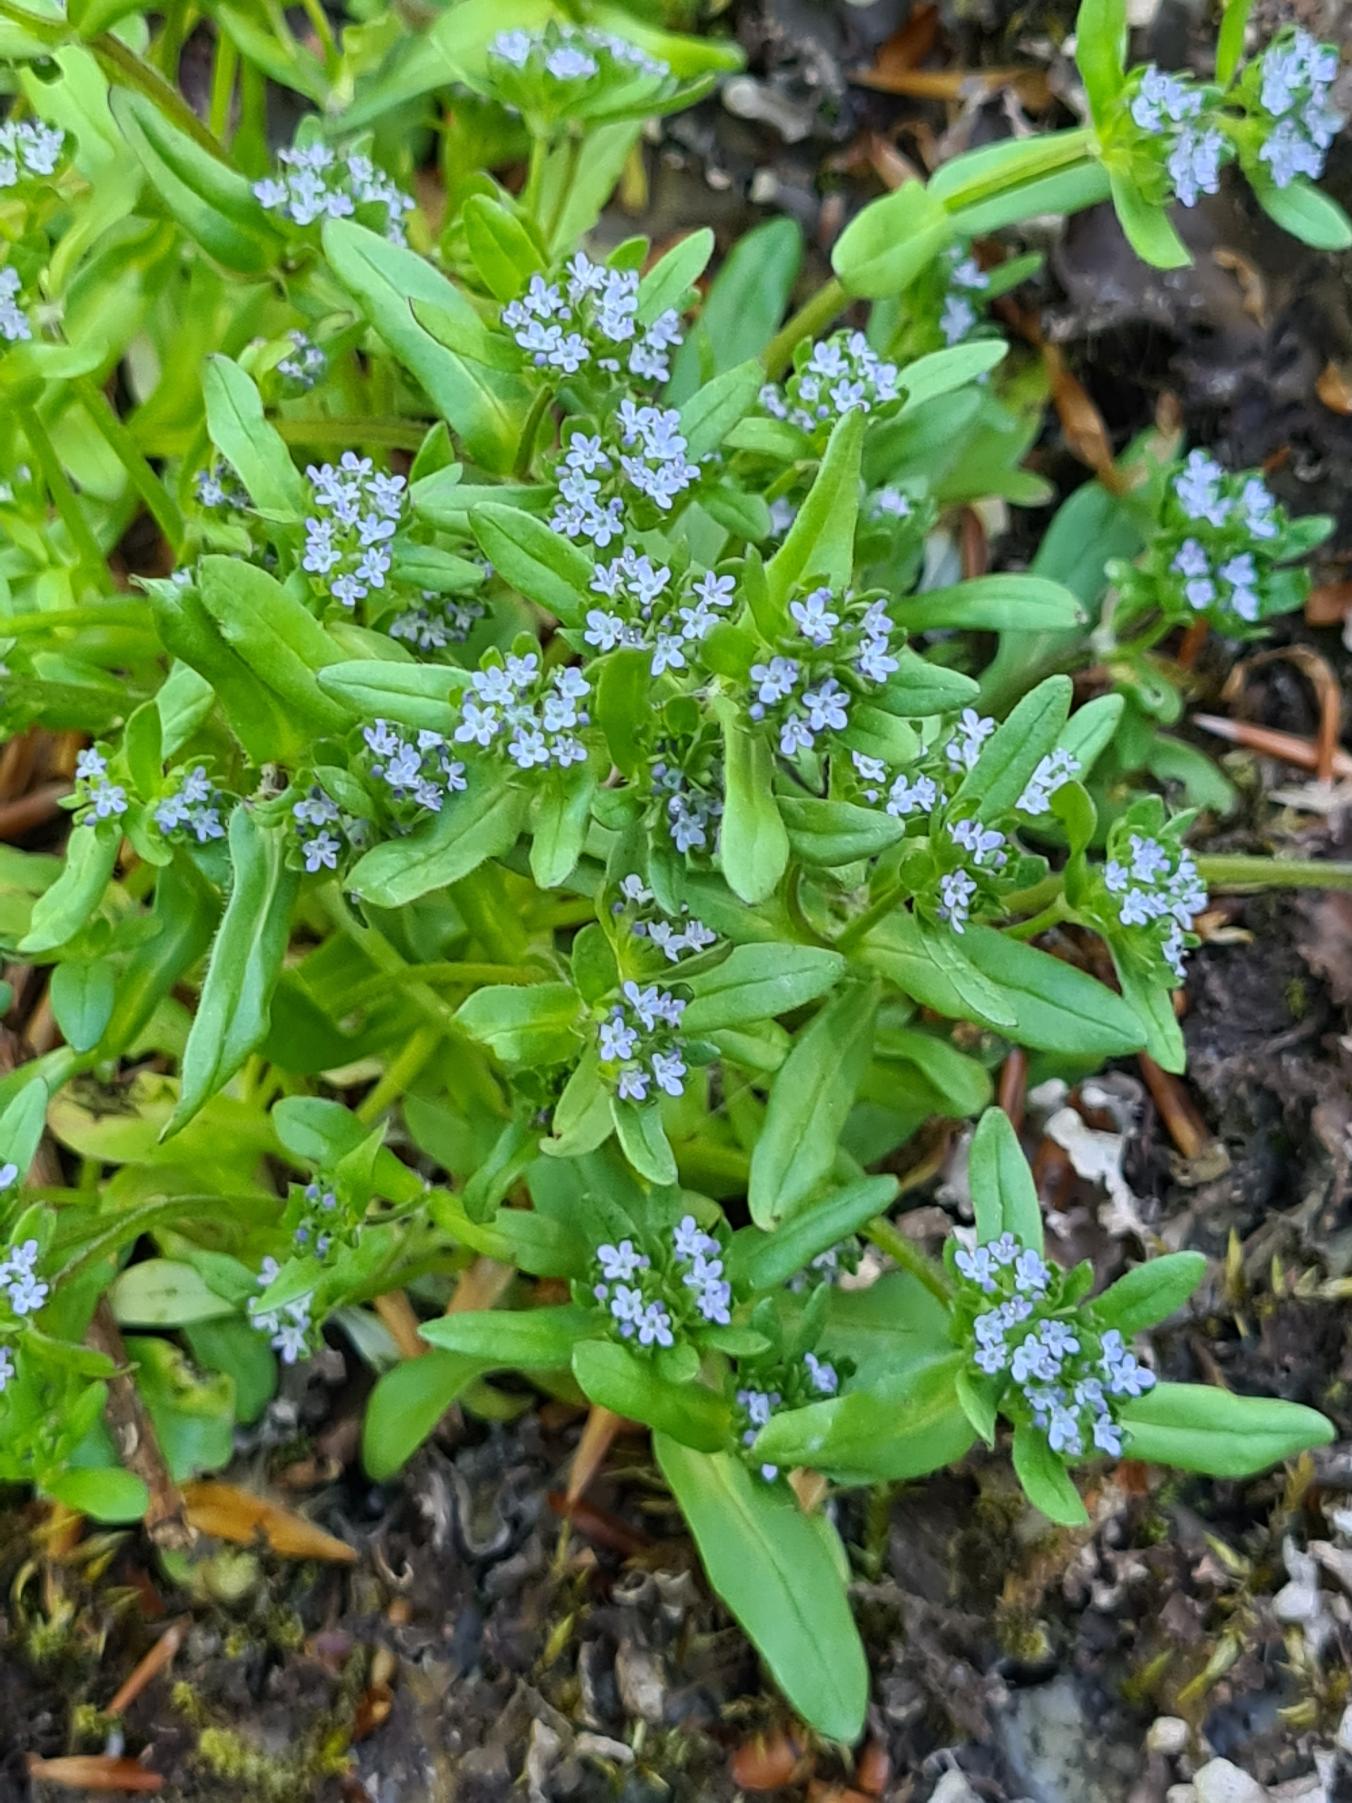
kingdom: Plantae
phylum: Tracheophyta
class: Magnoliopsida
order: Dipsacales
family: Caprifoliaceae
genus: Valerianella
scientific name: Valerianella locusta
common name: Tandfri vårsalat
